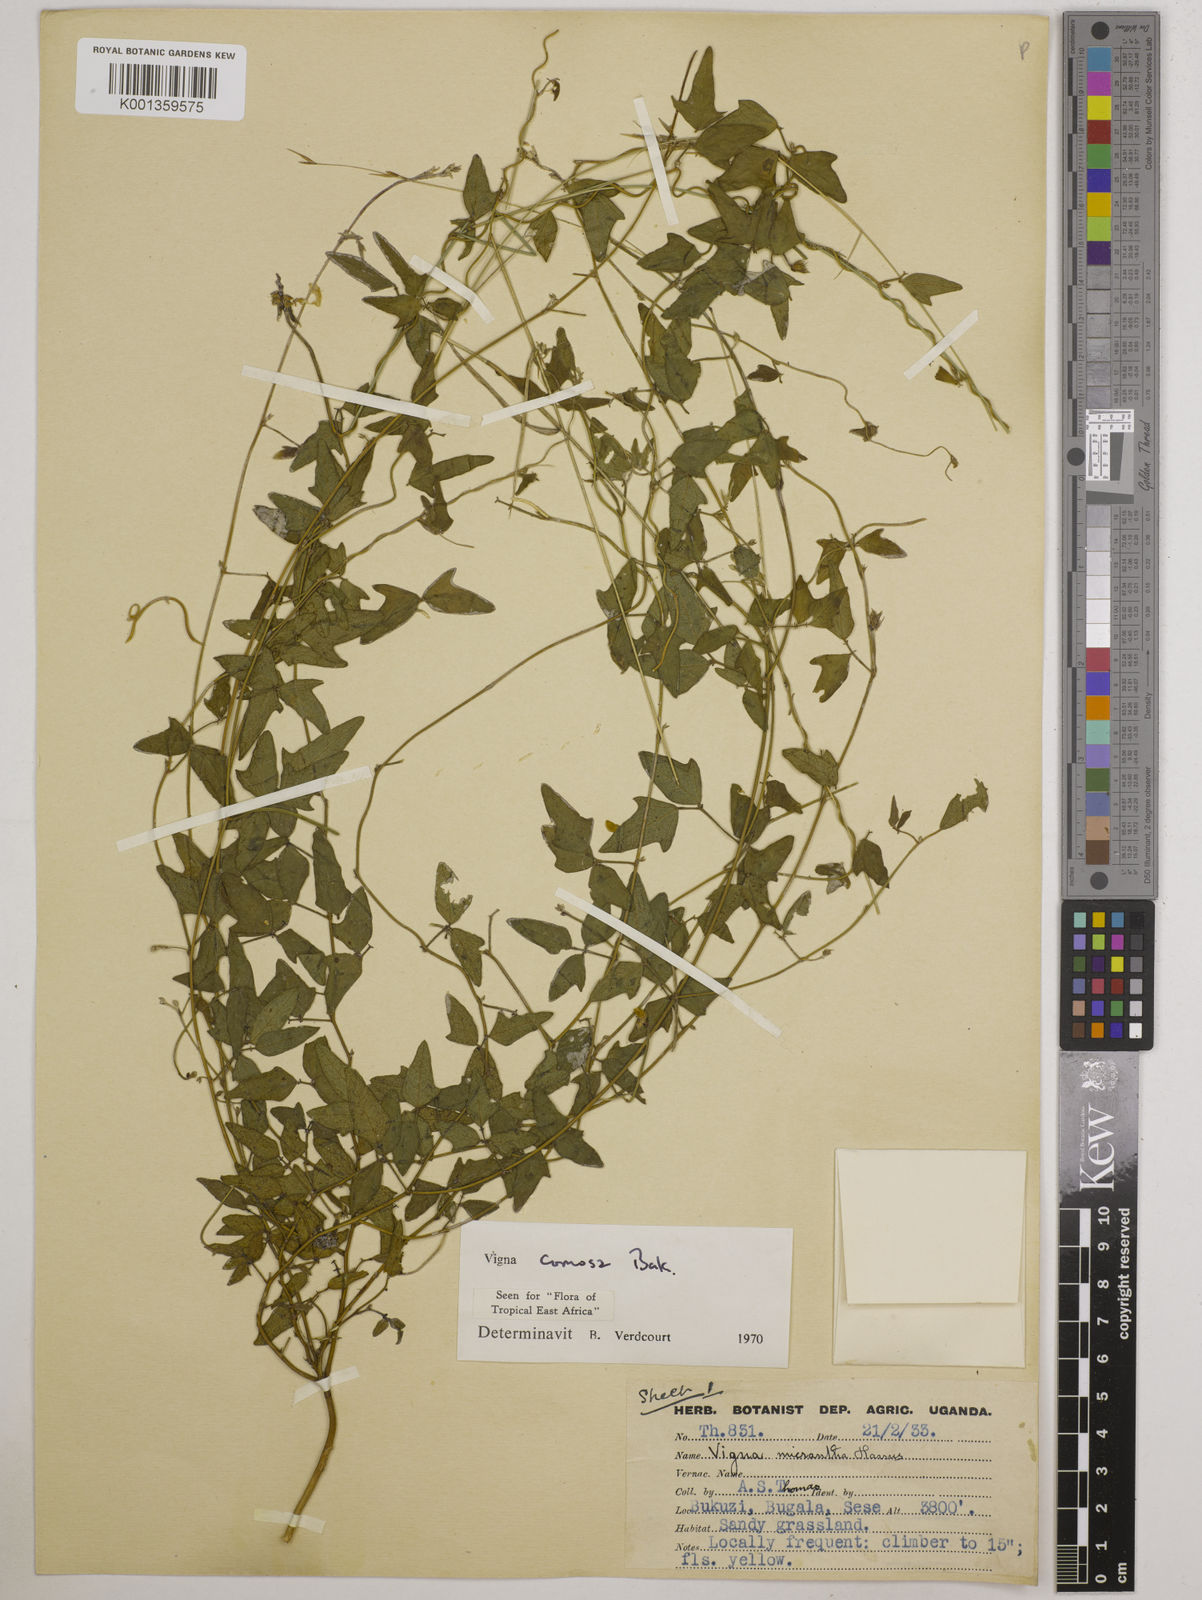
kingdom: Plantae
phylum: Tracheophyta
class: Magnoliopsida
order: Fabales
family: Fabaceae
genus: Vigna
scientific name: Vigna comosa
